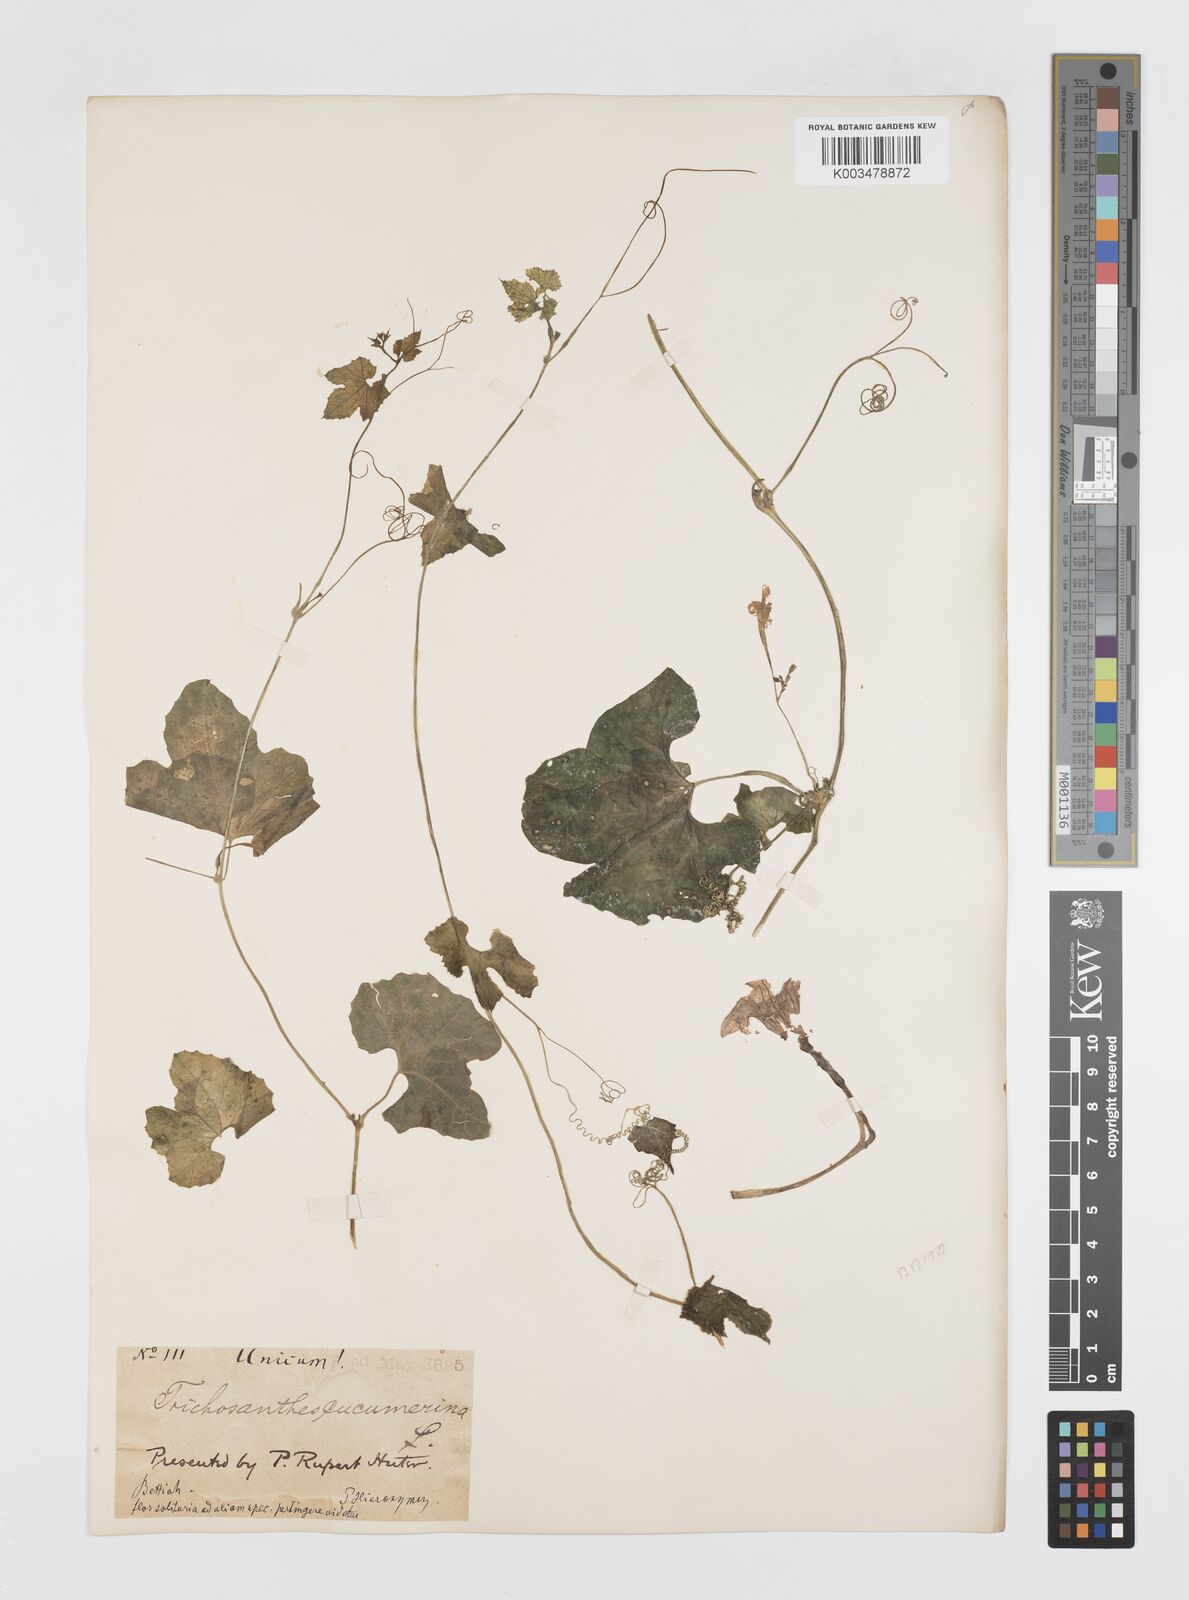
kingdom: Plantae
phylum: Tracheophyta
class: Magnoliopsida
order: Cucurbitales
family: Cucurbitaceae
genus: Trichosanthes
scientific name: Trichosanthes cucumerina
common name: Snakegourd
